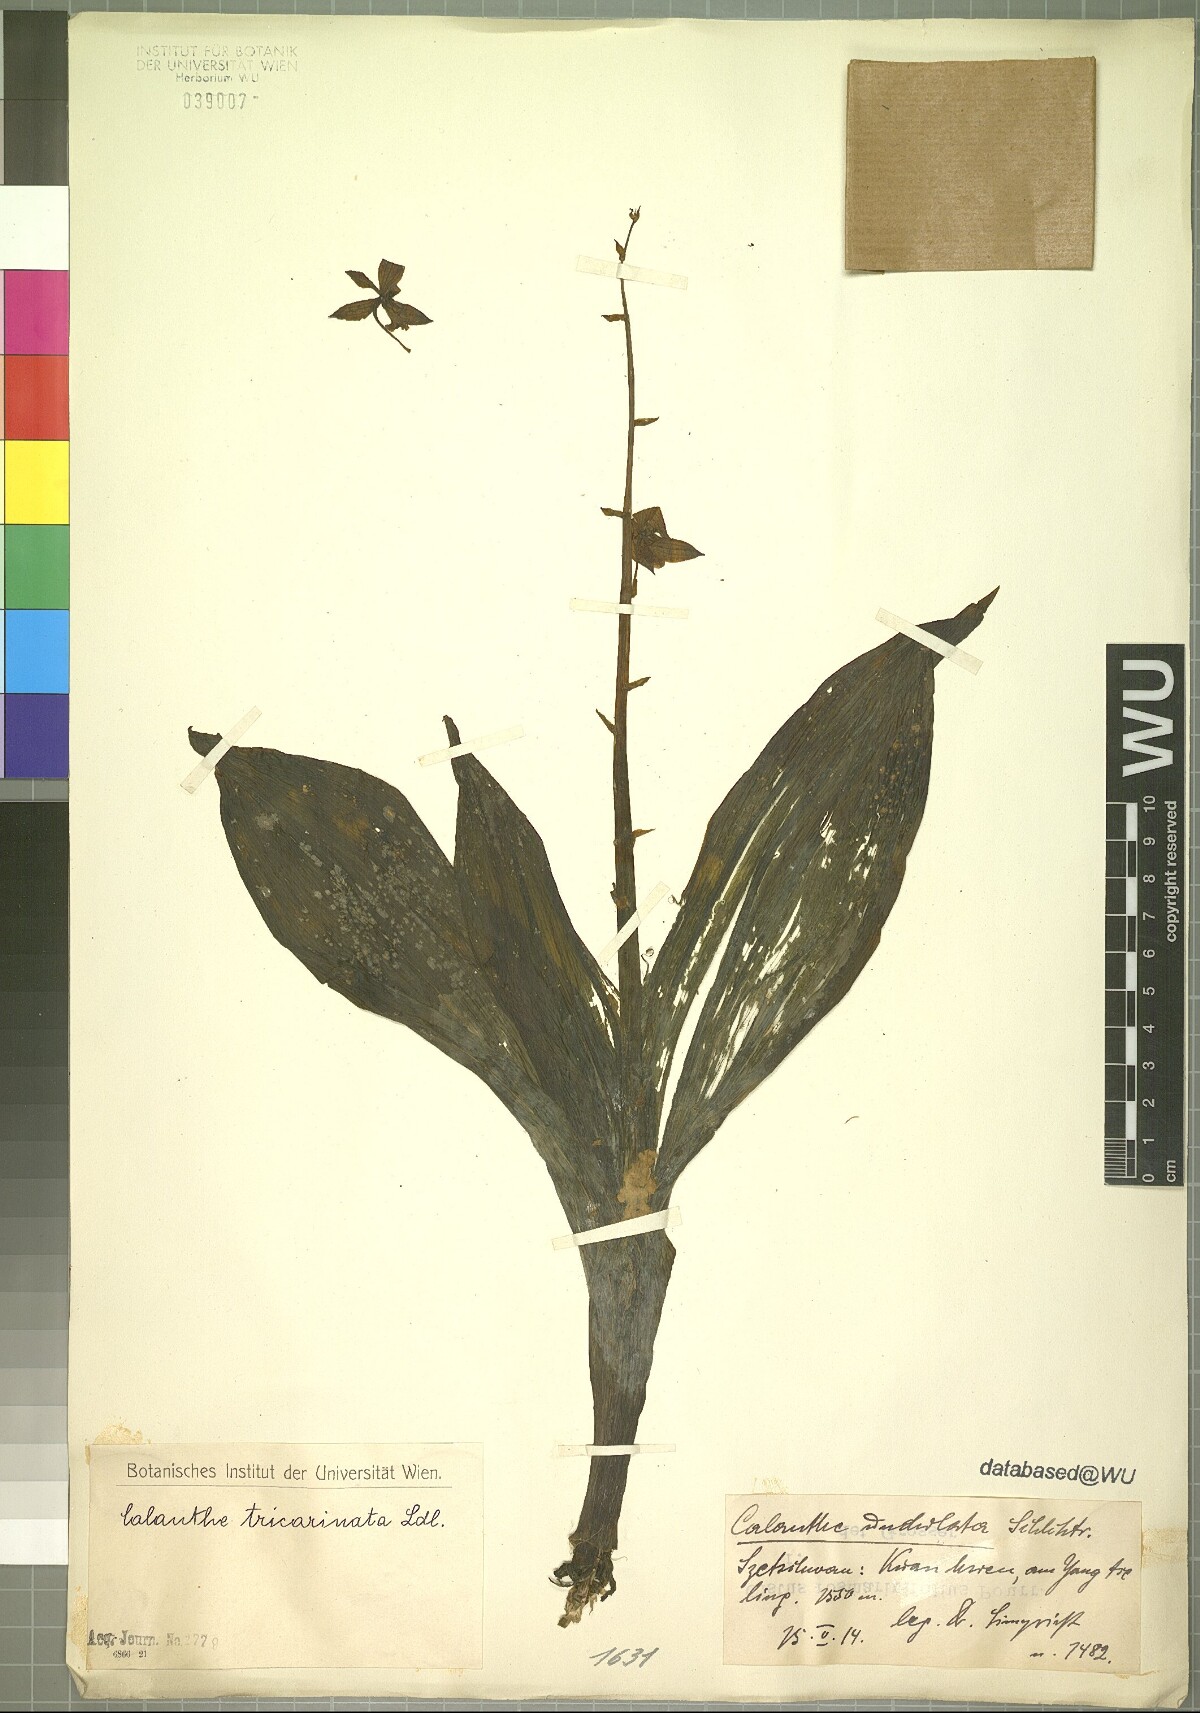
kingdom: Plantae
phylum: Tracheophyta
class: Liliopsida
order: Asparagales
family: Orchidaceae
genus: Calanthe
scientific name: Calanthe tricarinata
